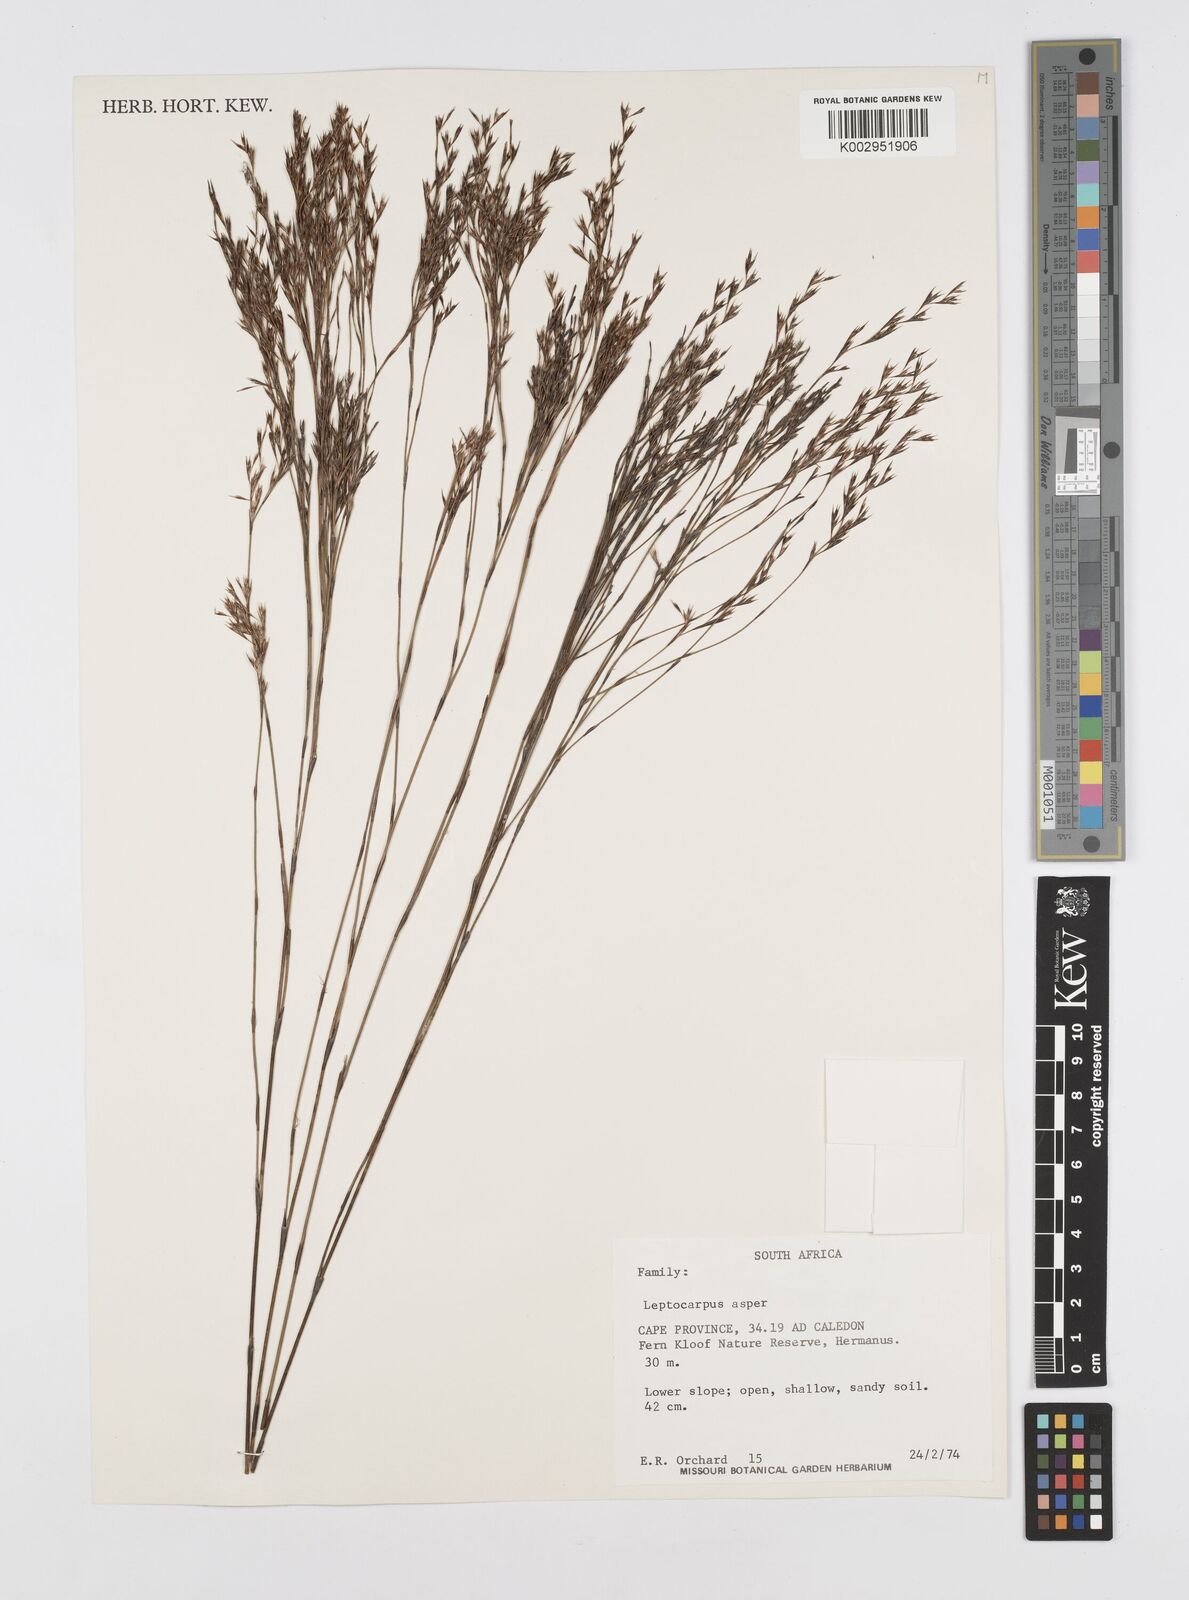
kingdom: Plantae
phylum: Tracheophyta
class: Liliopsida
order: Poales
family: Restionaceae
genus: Restio
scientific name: Restio asperus
